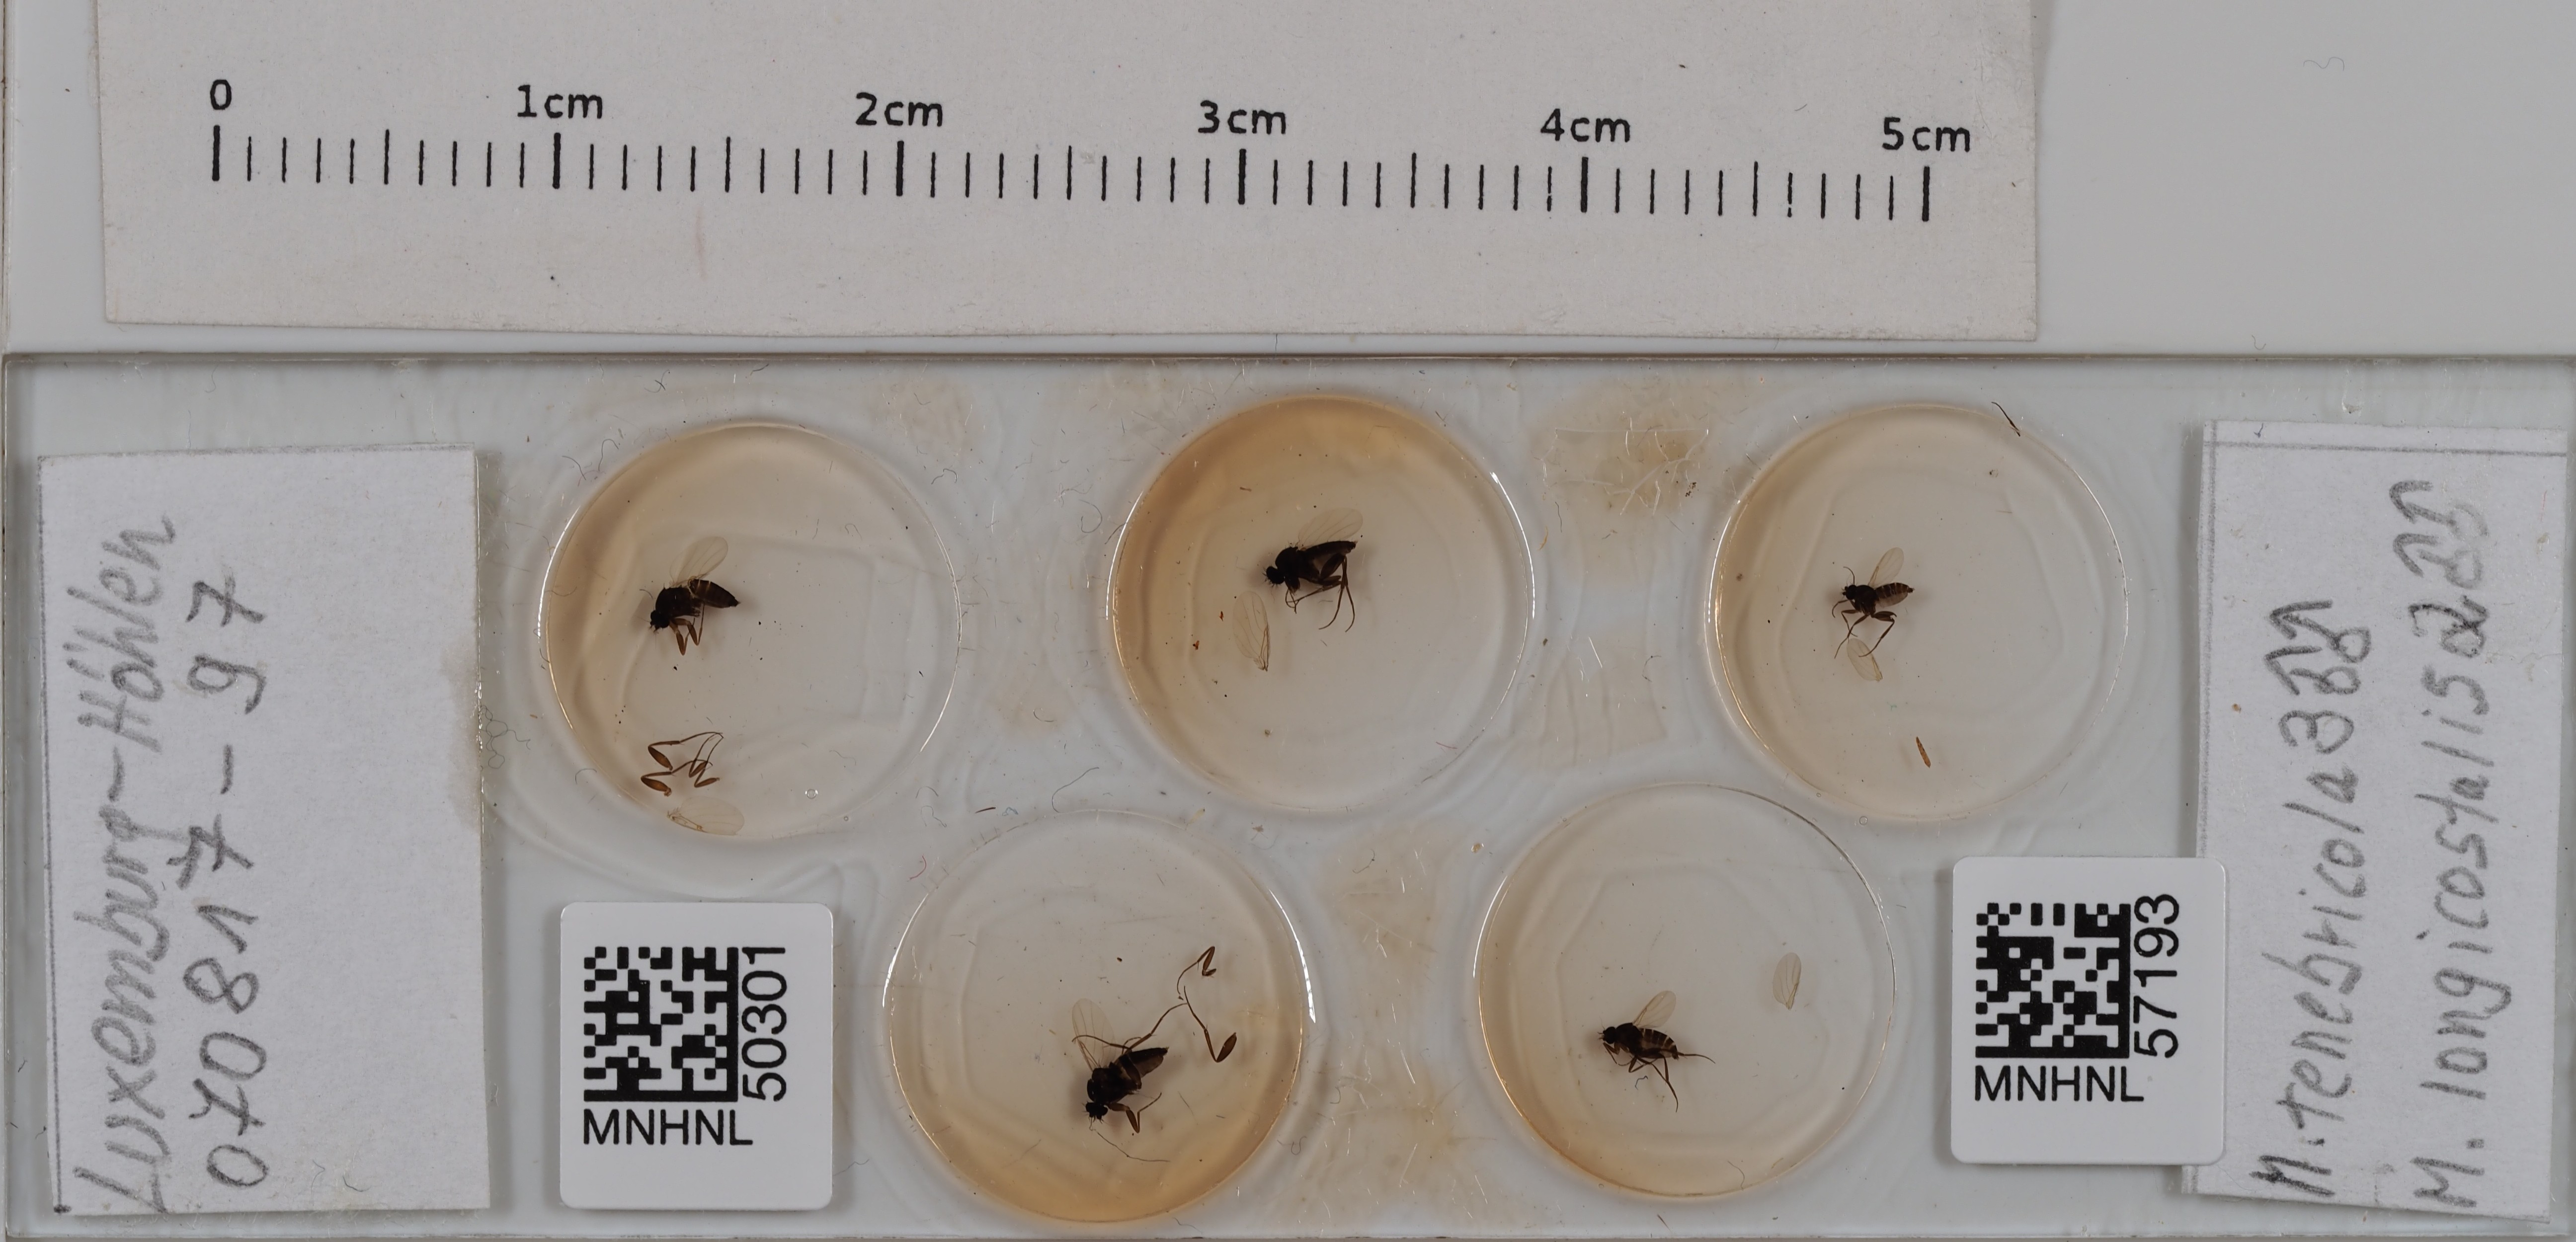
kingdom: Animalia
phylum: Arthropoda
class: Insecta
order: Diptera
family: Phoridae
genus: Megaselia
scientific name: Megaselia tenebricola
